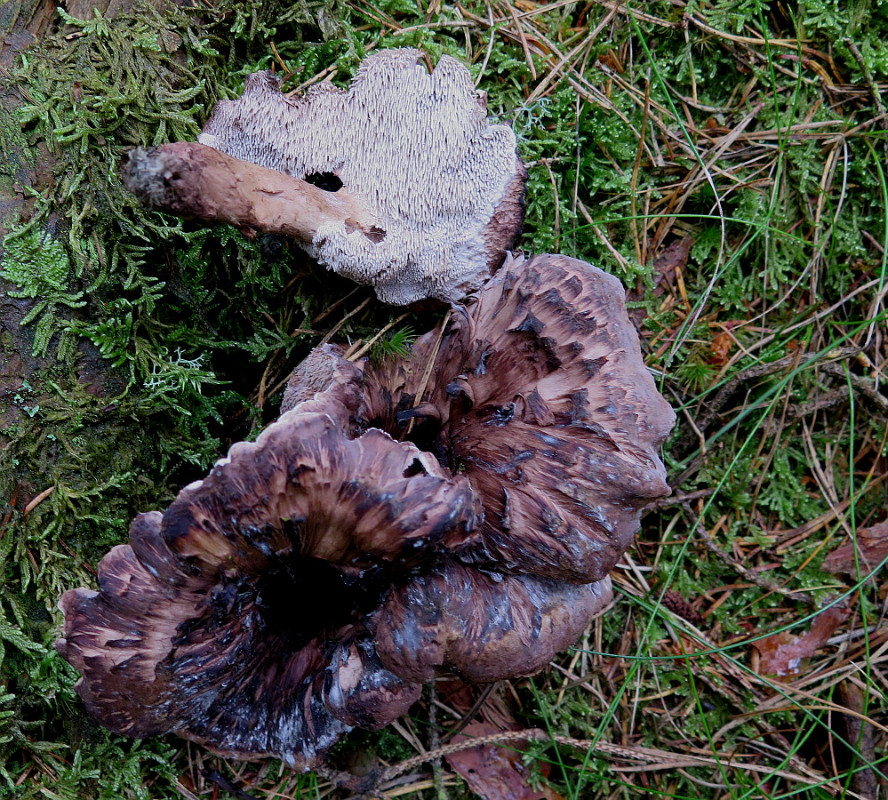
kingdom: Fungi
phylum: Basidiomycota
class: Agaricomycetes
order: Thelephorales
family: Thelephoraceae
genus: Phellodon
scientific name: Phellodon violascens
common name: violetbrun duftpigsvamp
